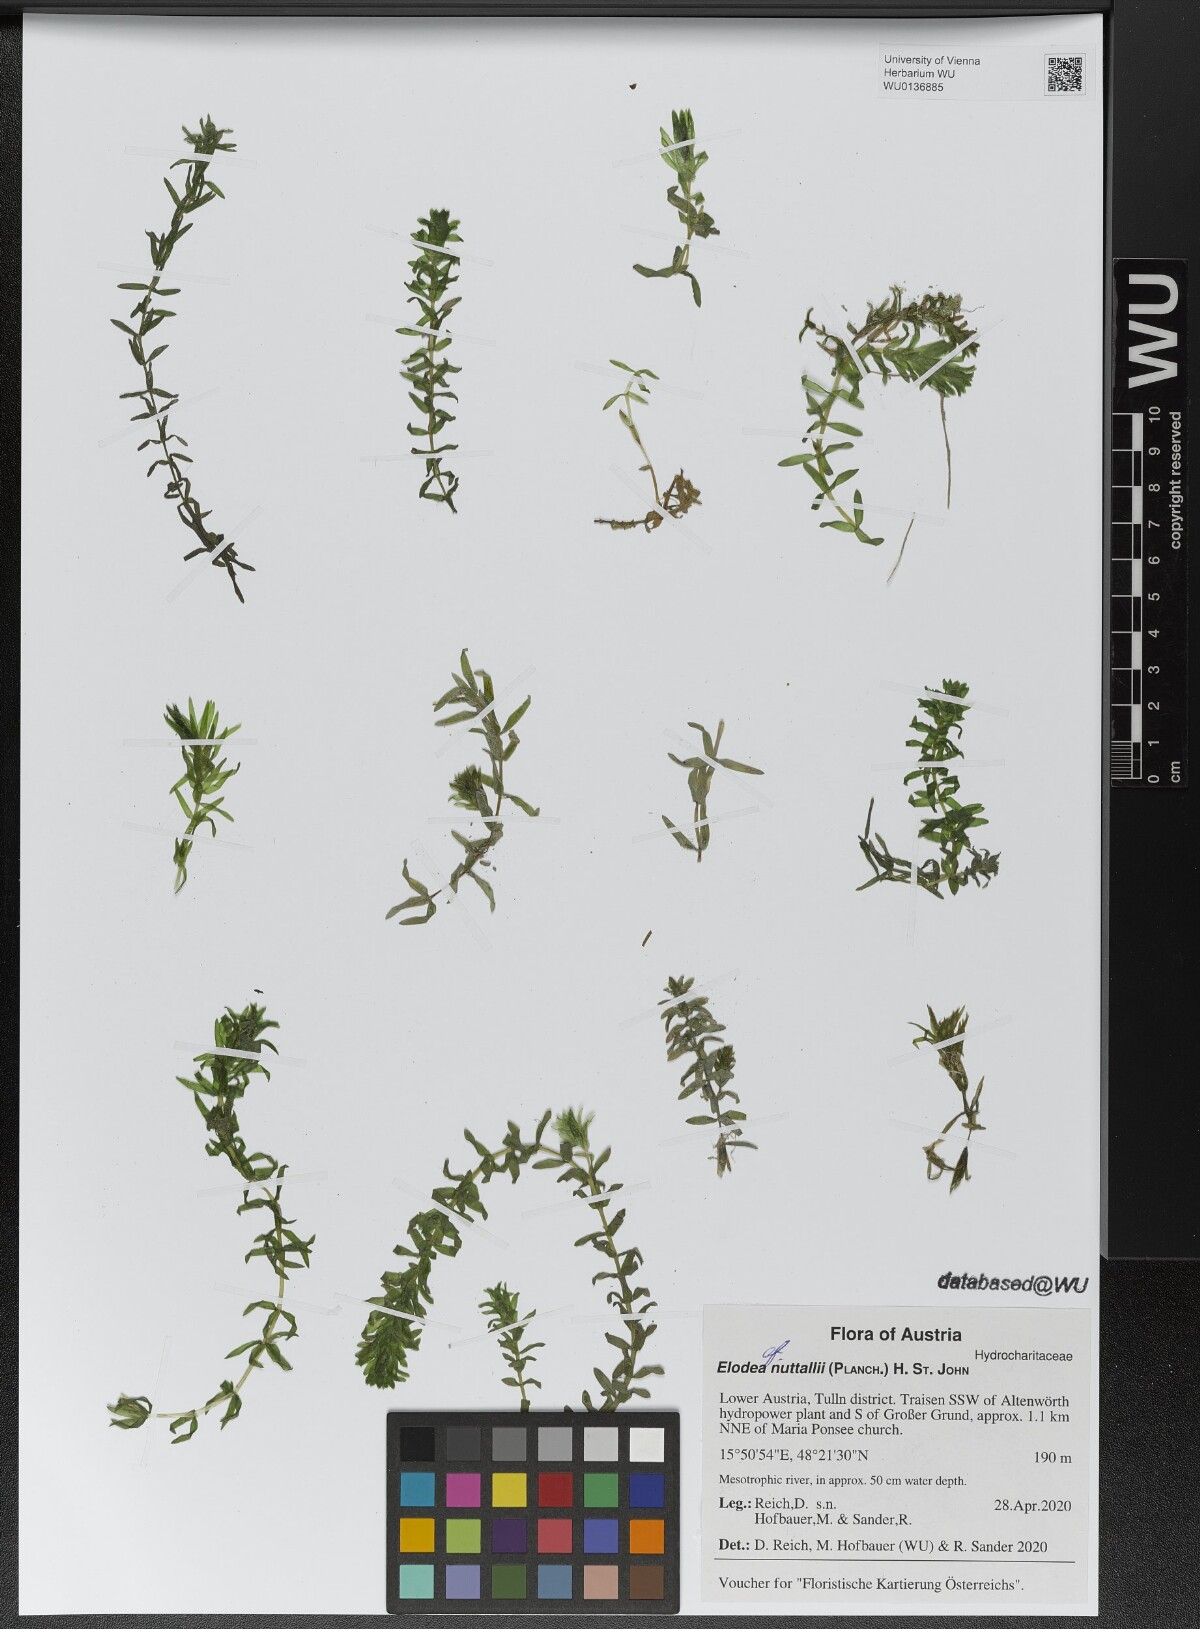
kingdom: Plantae
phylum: Tracheophyta
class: Liliopsida
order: Alismatales
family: Hydrocharitaceae
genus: Elodea
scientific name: Elodea nuttallii
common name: Nuttall's waterweed
